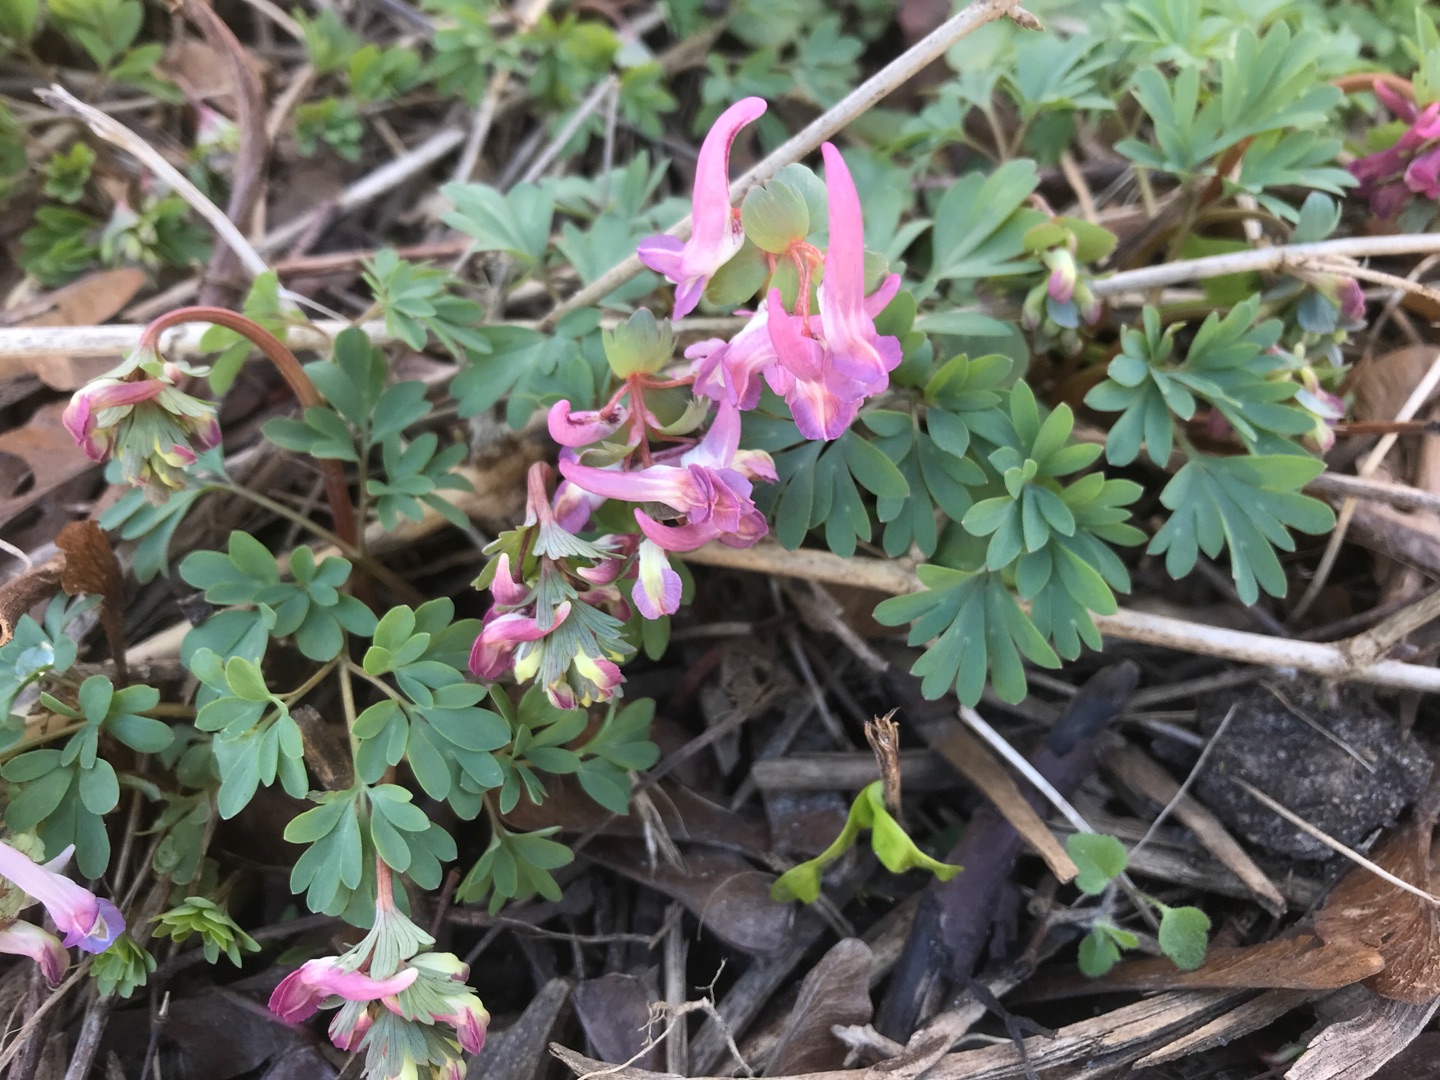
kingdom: Plantae
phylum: Tracheophyta
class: Magnoliopsida
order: Ranunculales
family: Papaveraceae
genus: Corydalis
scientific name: Corydalis solida
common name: Langstilket lærkespore
